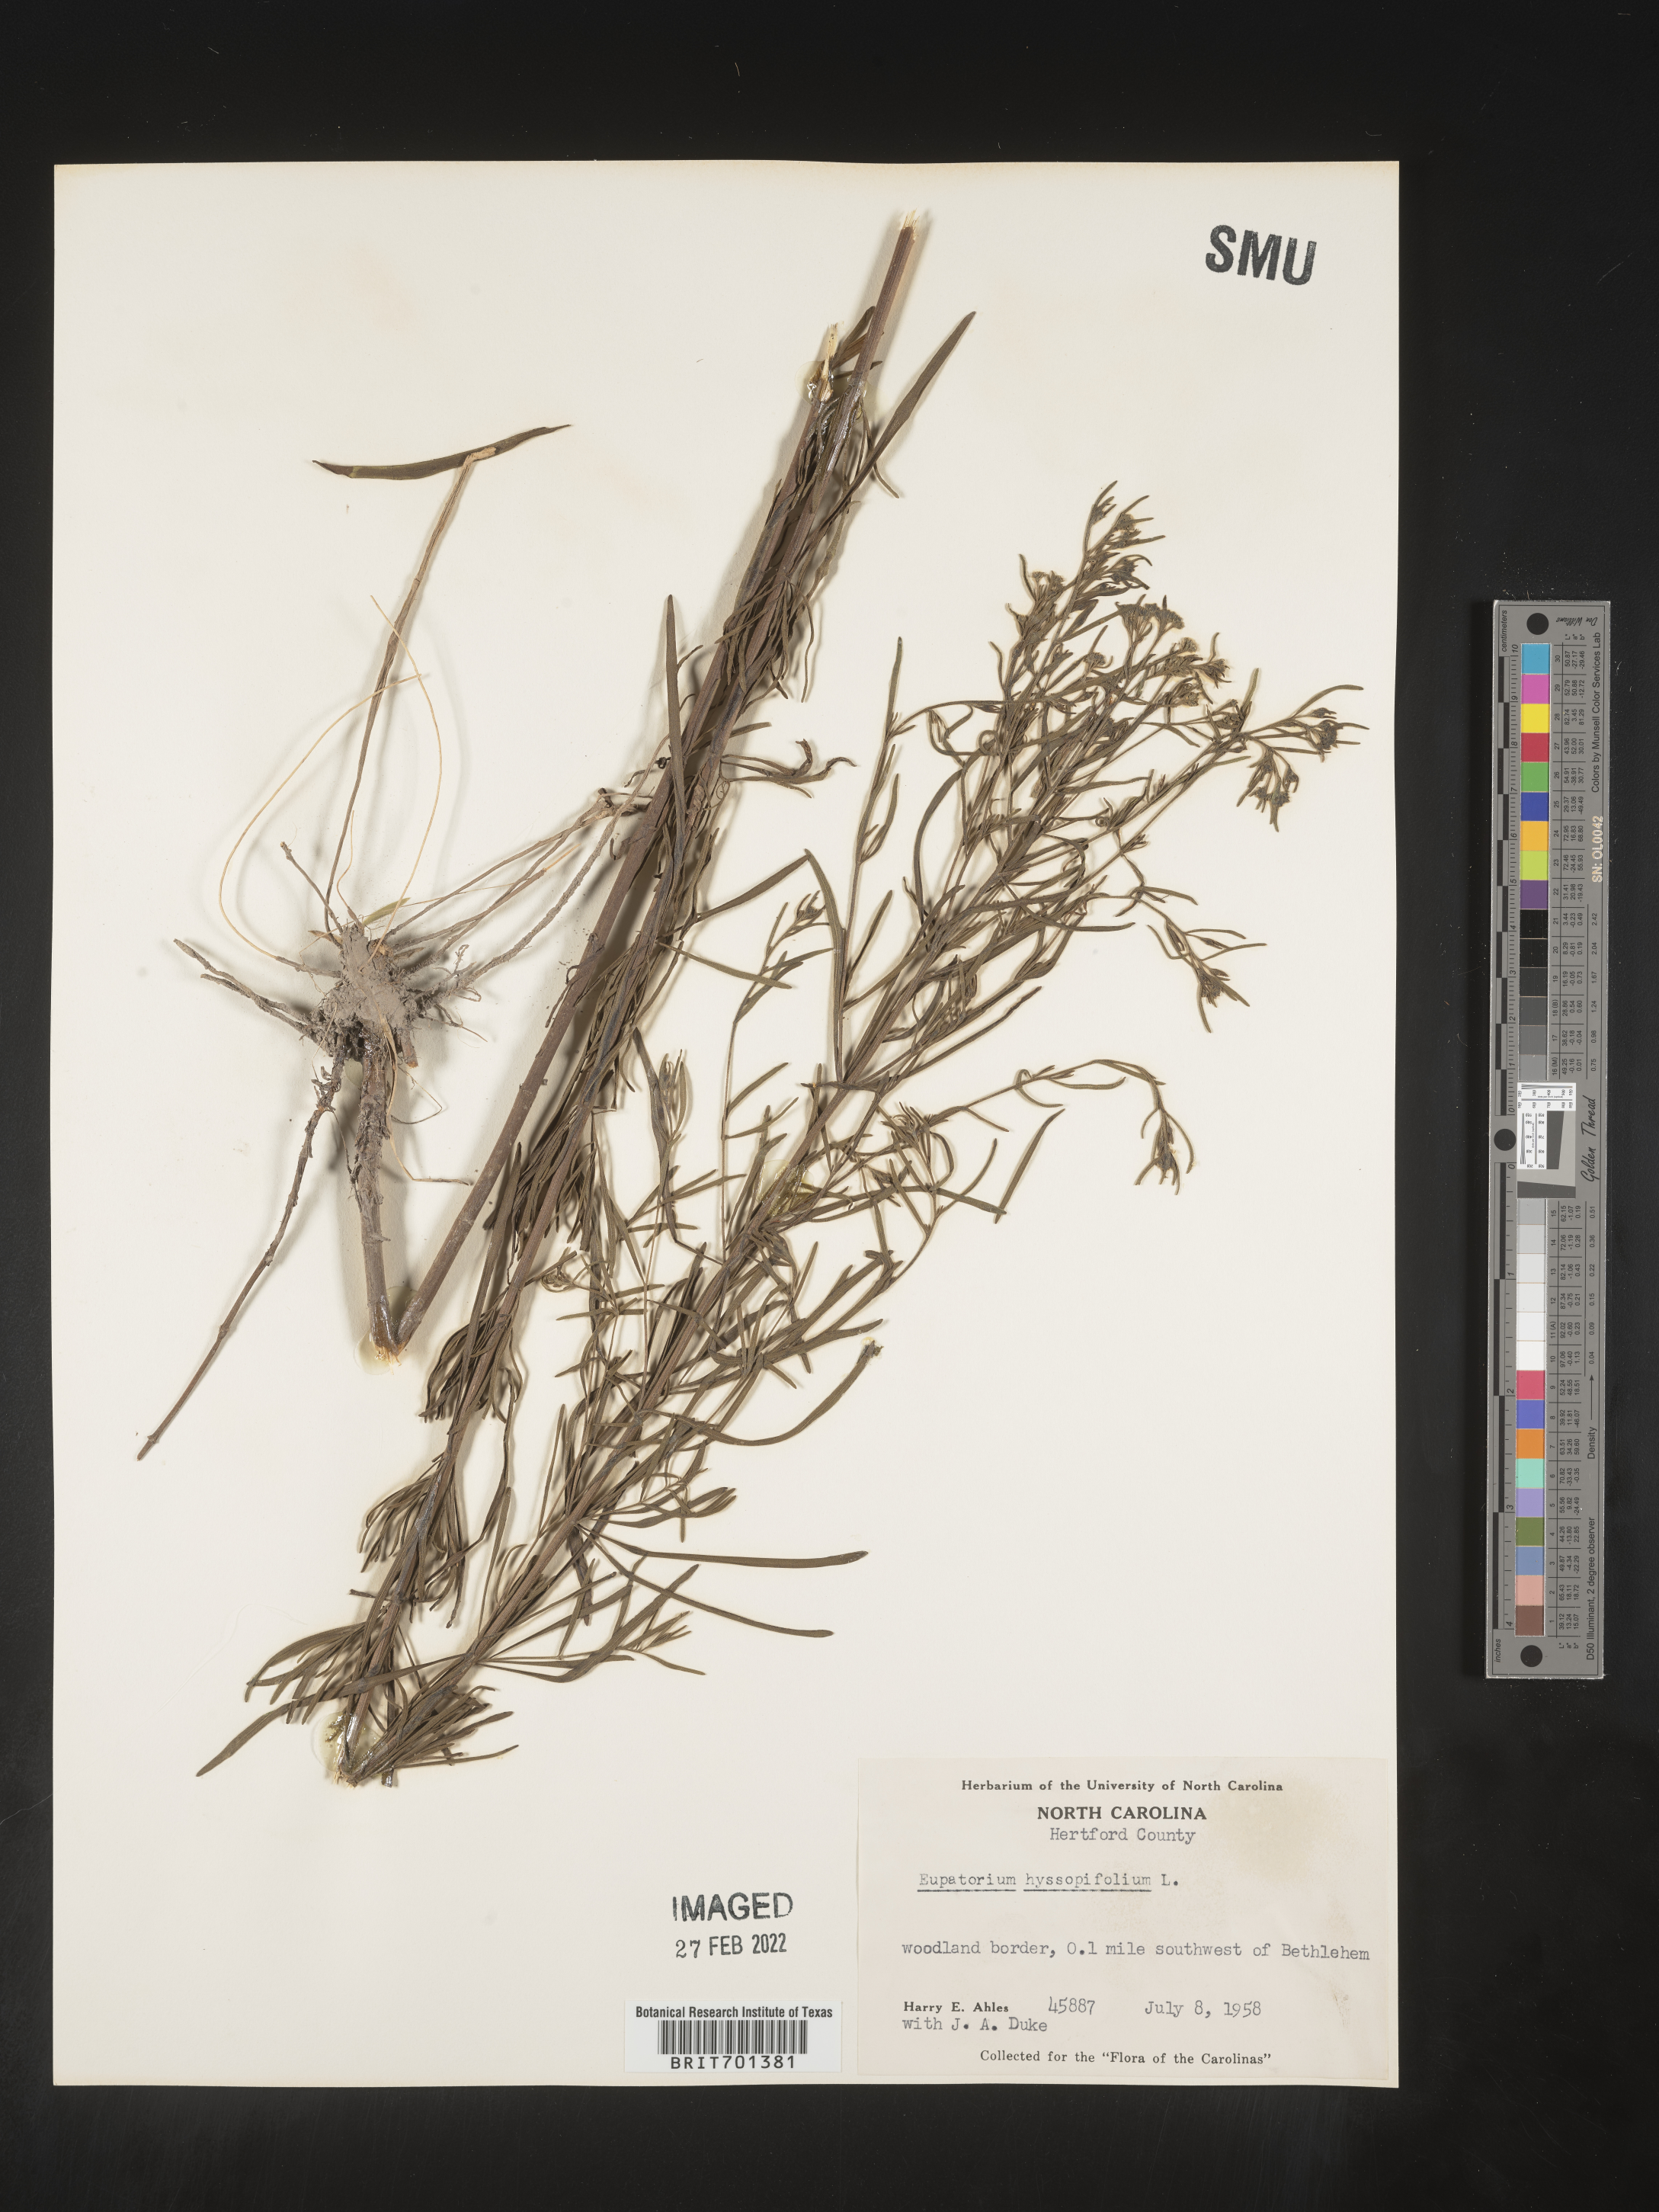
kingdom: Plantae
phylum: Tracheophyta
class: Magnoliopsida
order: Asterales
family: Asteraceae
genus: Eupatorium
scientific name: Eupatorium hyssopifolium
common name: Hyssop-leaf thoroughwort
